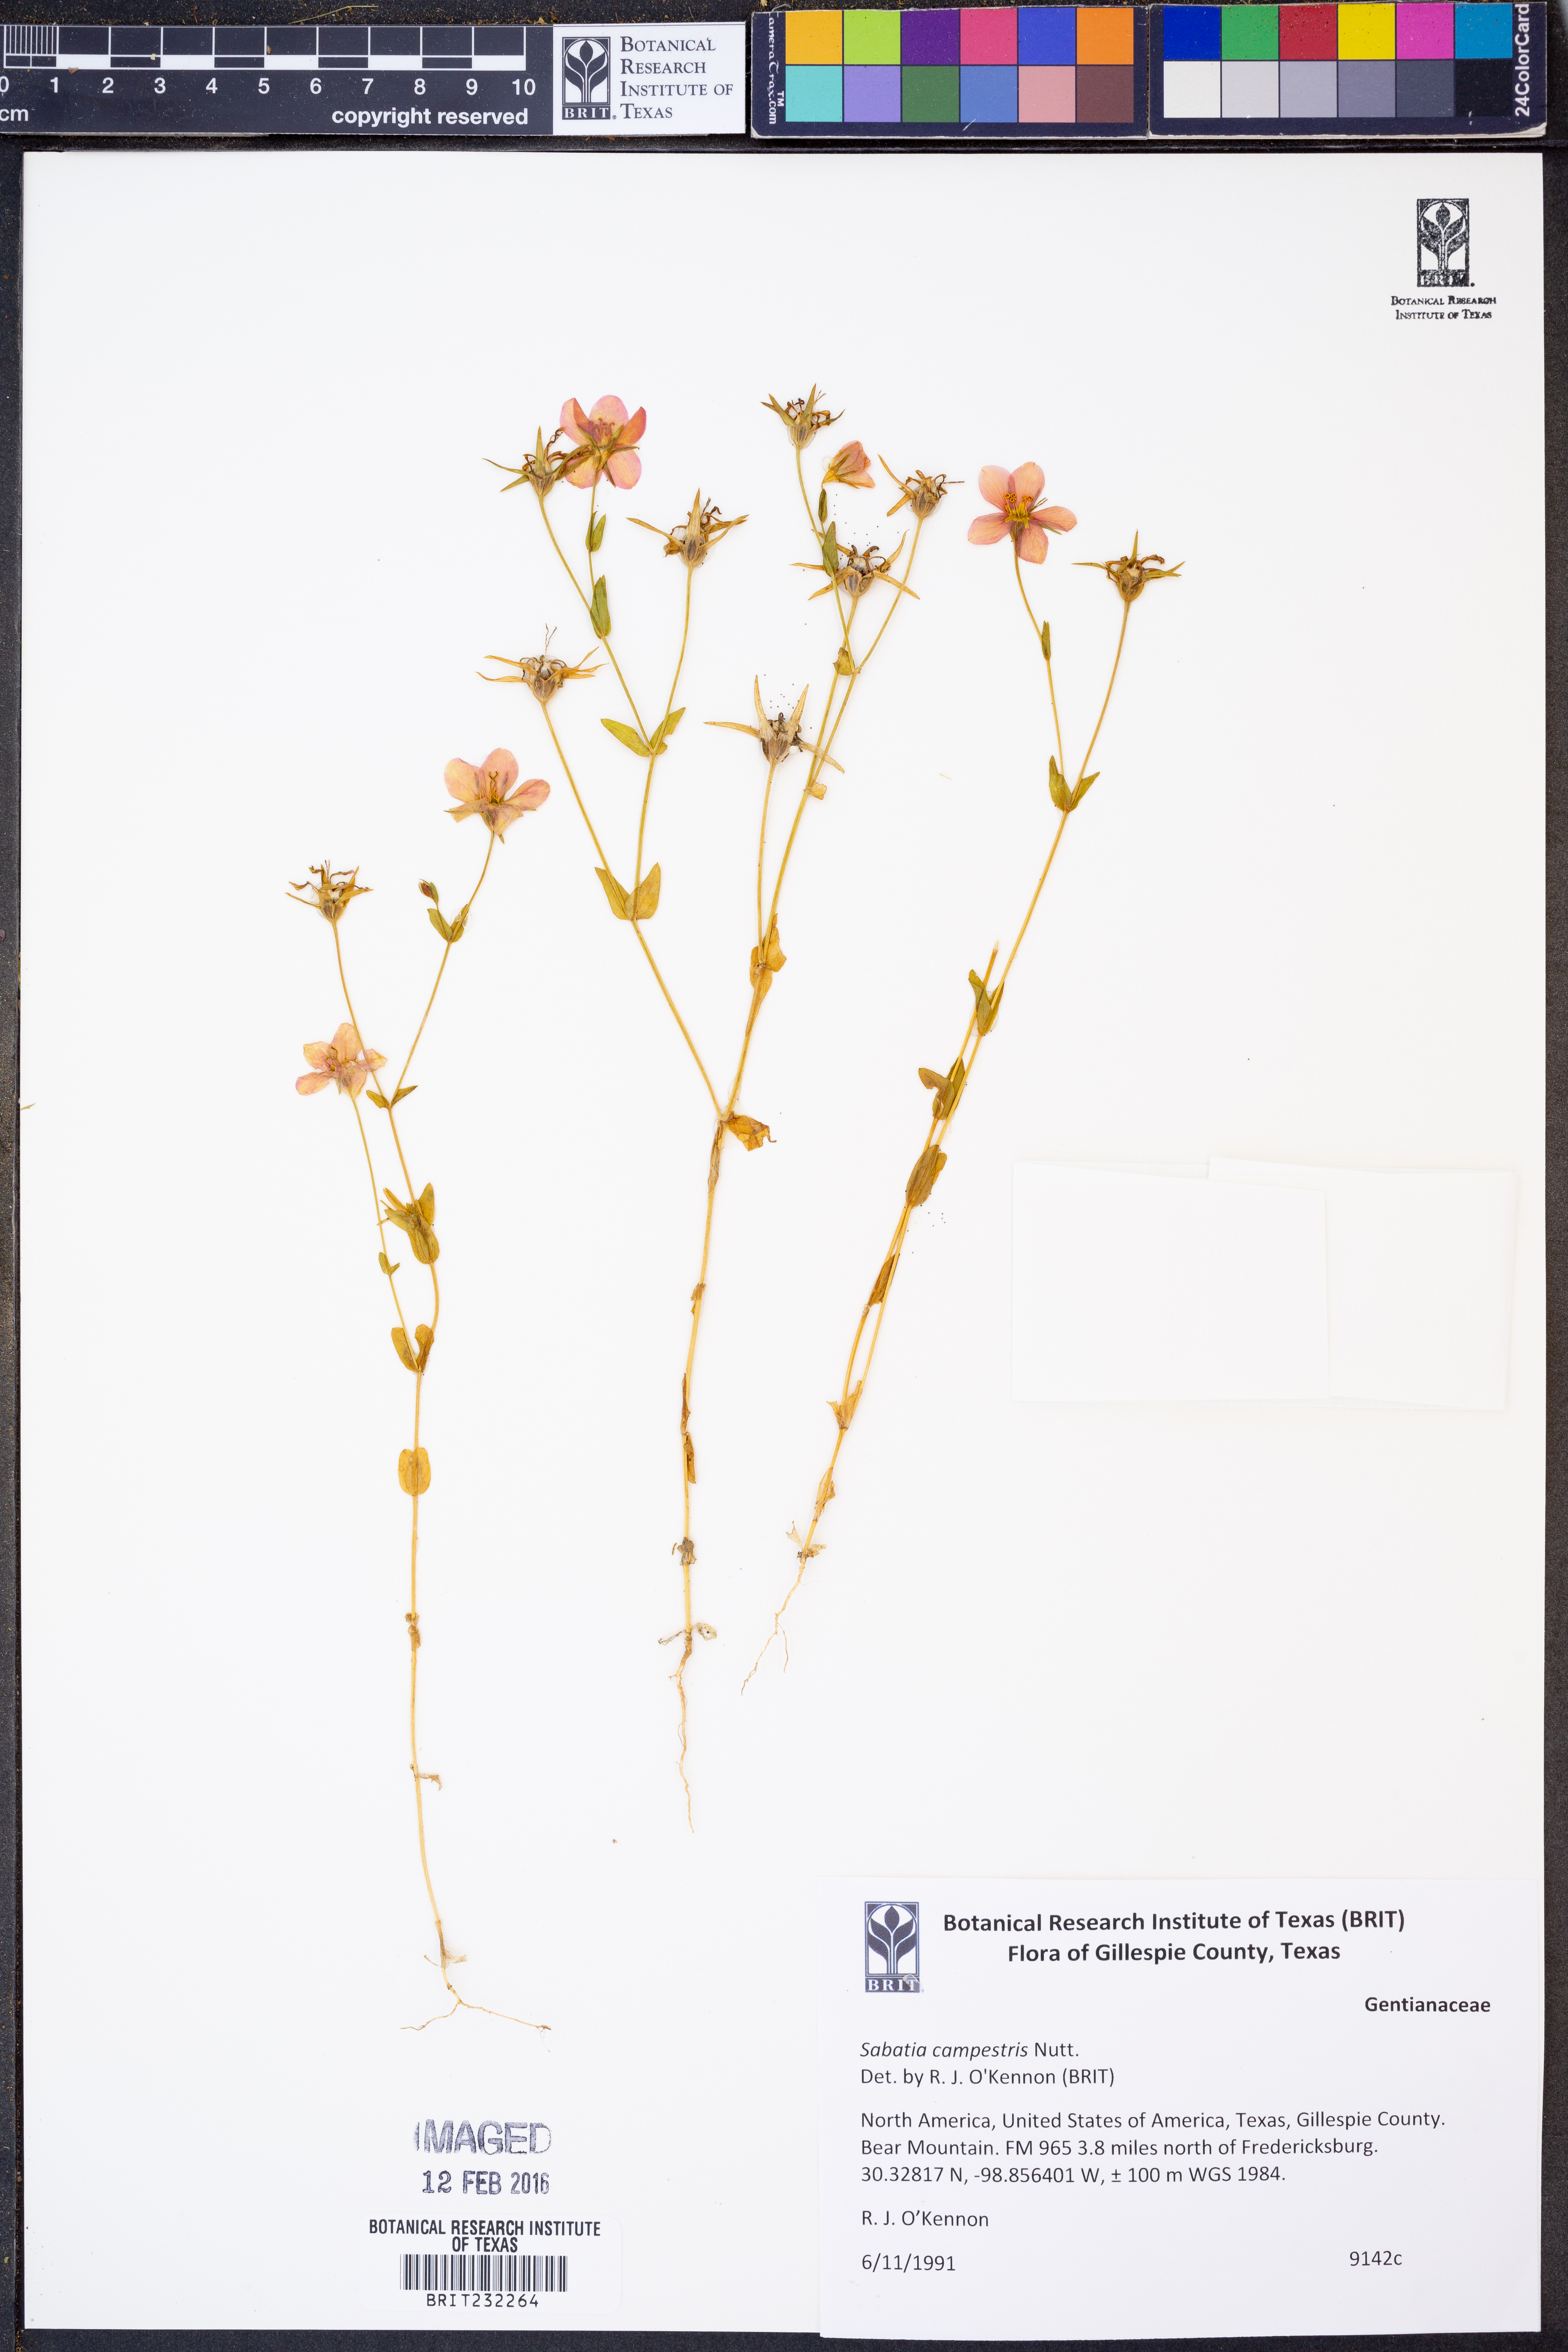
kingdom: Plantae
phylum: Tracheophyta
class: Magnoliopsida
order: Gentianales
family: Gentianaceae
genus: Sabatia
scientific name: Sabatia campestris
